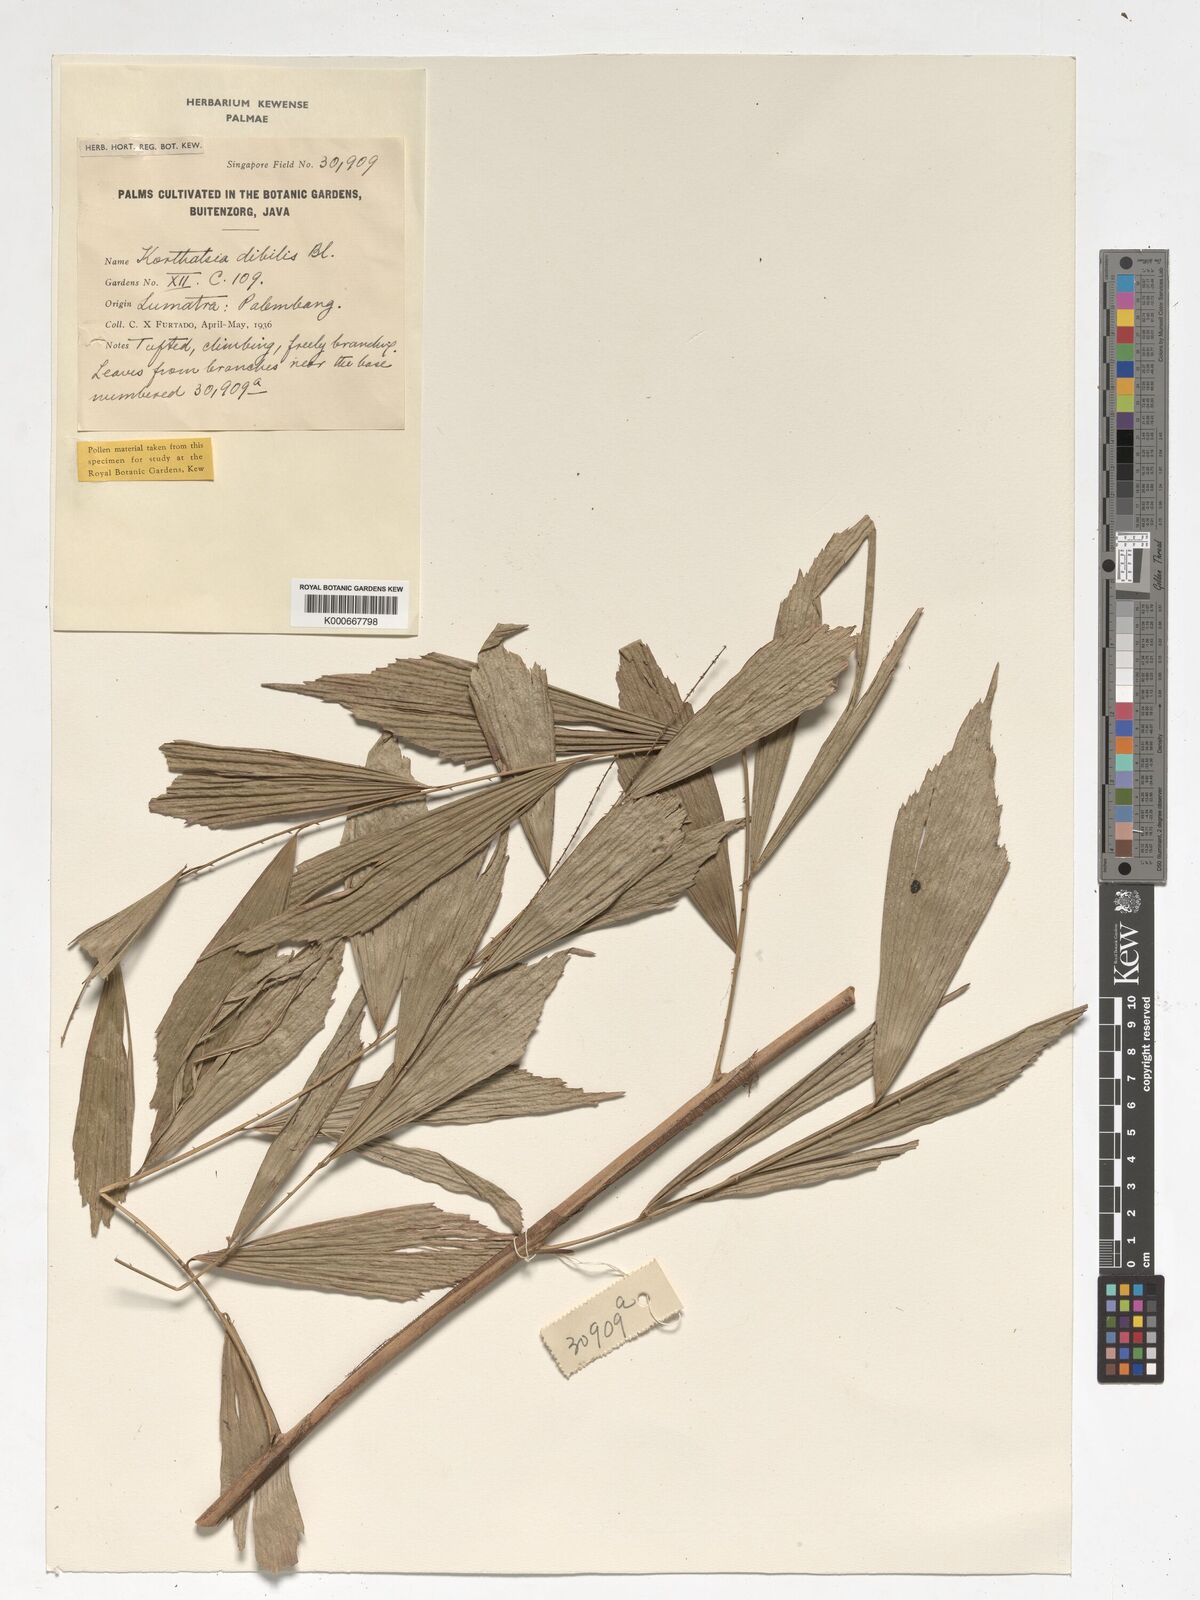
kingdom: Plantae
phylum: Tracheophyta
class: Liliopsida
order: Arecales
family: Arecaceae
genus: Korthalsia
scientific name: Korthalsia debilis
